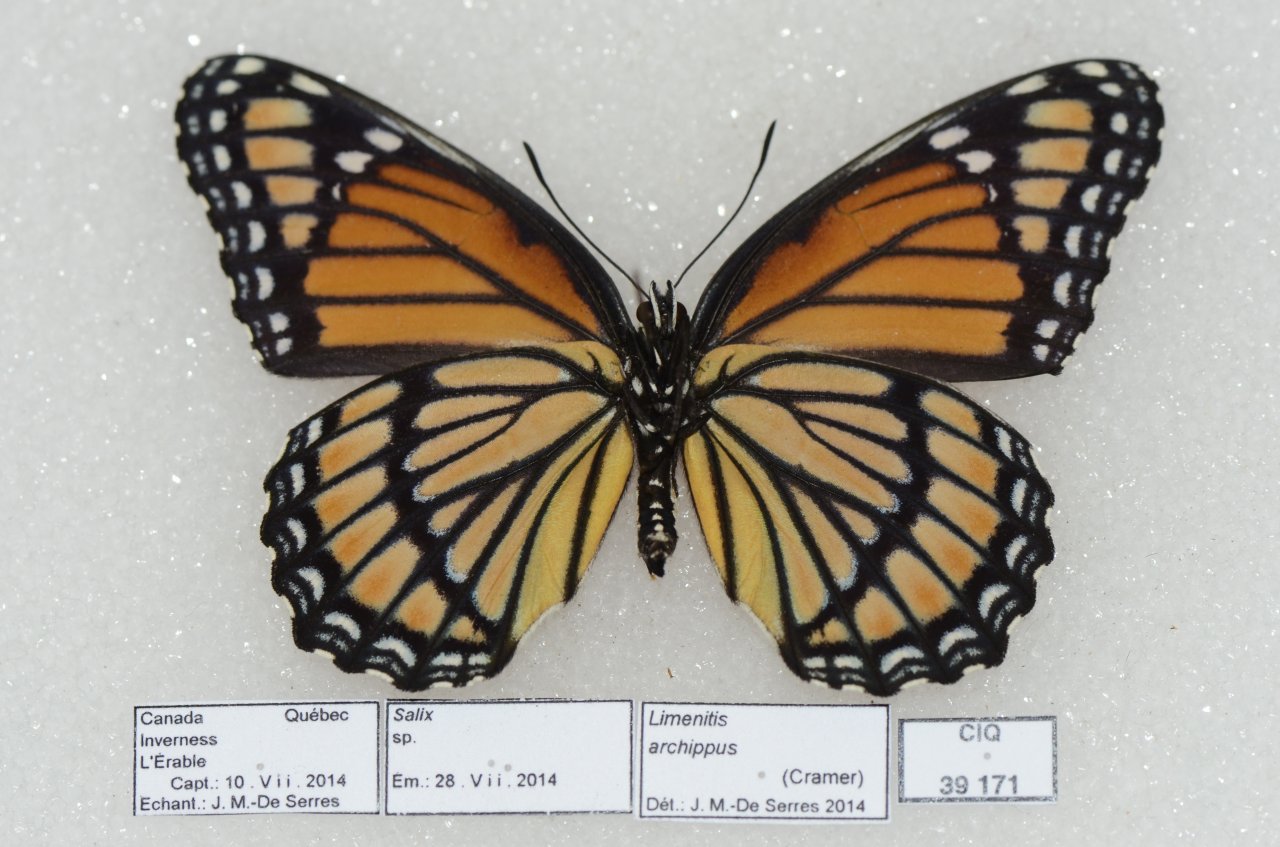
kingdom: Animalia
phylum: Arthropoda
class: Insecta
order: Lepidoptera
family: Nymphalidae
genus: Limenitis
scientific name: Limenitis archippus
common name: Viceroy
